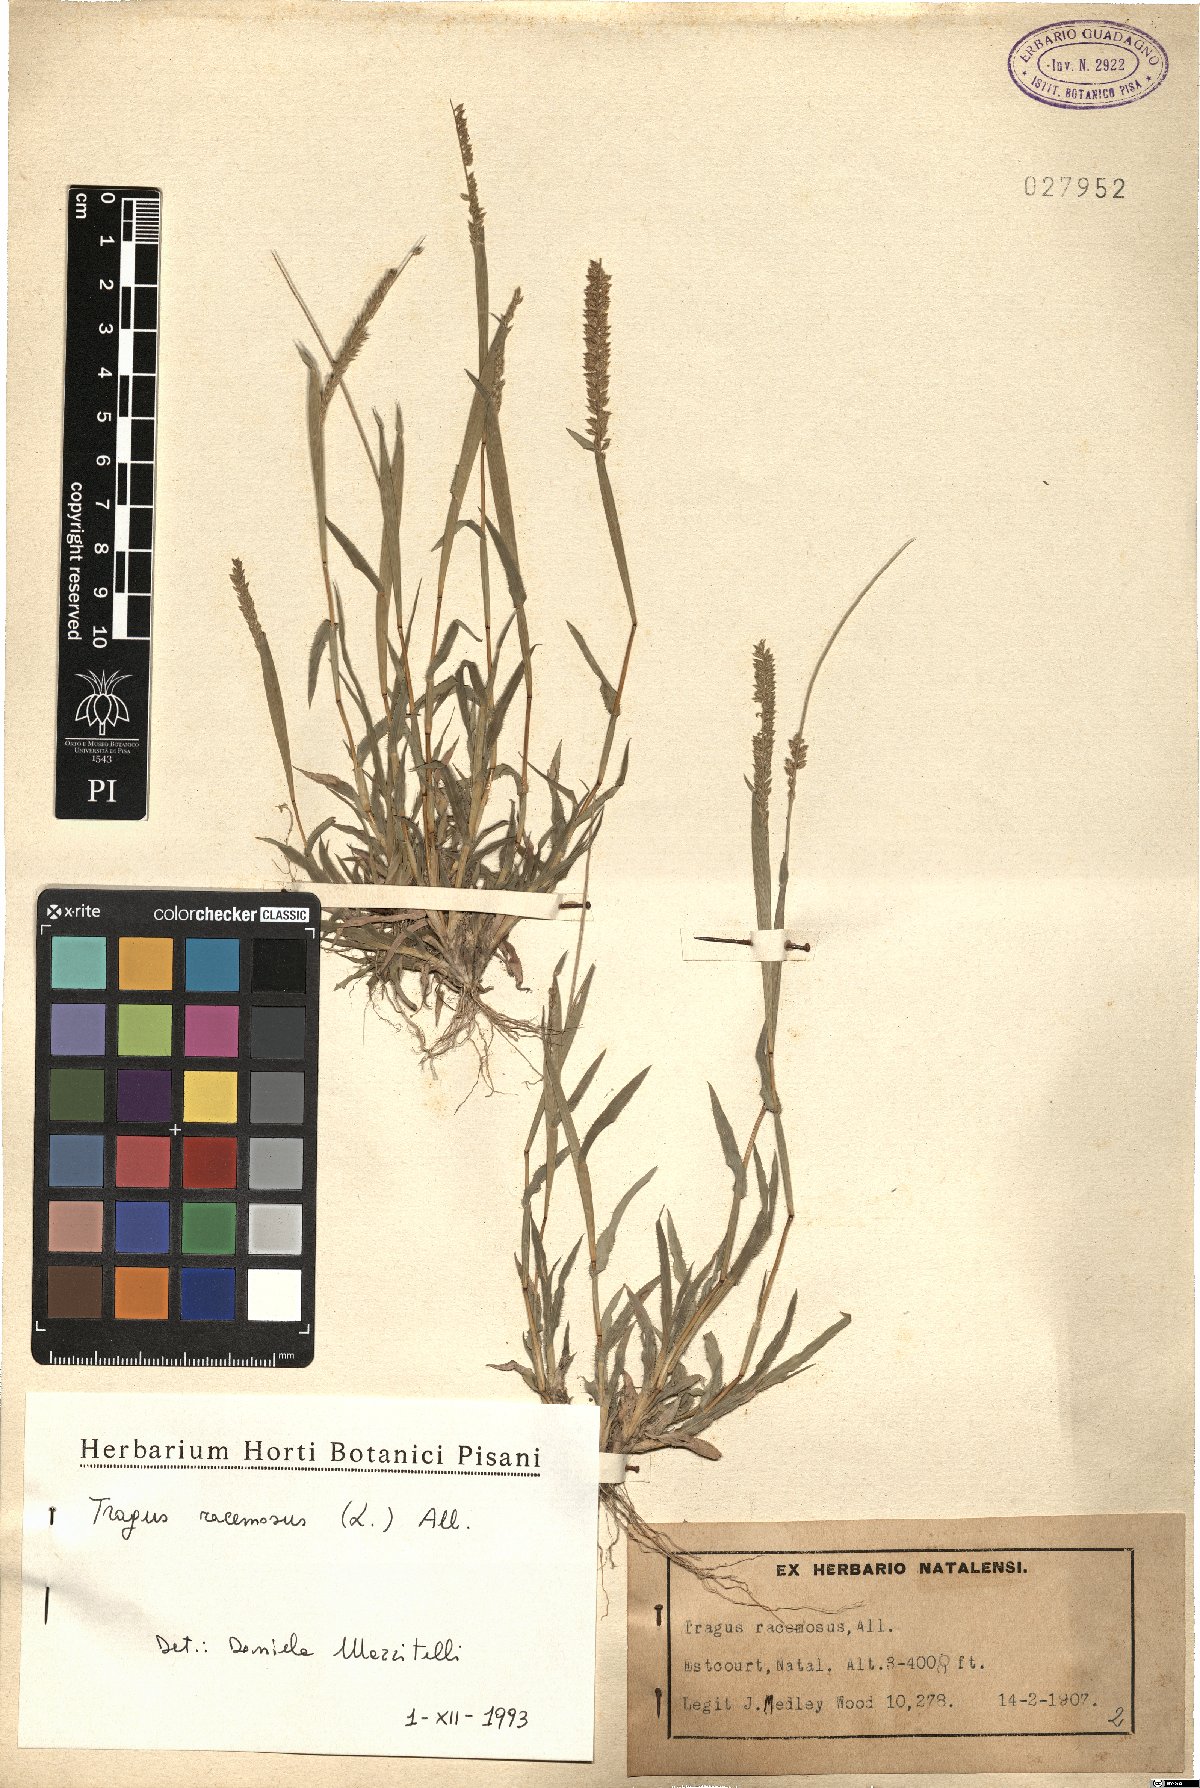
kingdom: Plantae
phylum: Tracheophyta
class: Liliopsida
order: Poales
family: Poaceae
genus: Tragus
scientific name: Tragus racemosus
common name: European bur-grass
